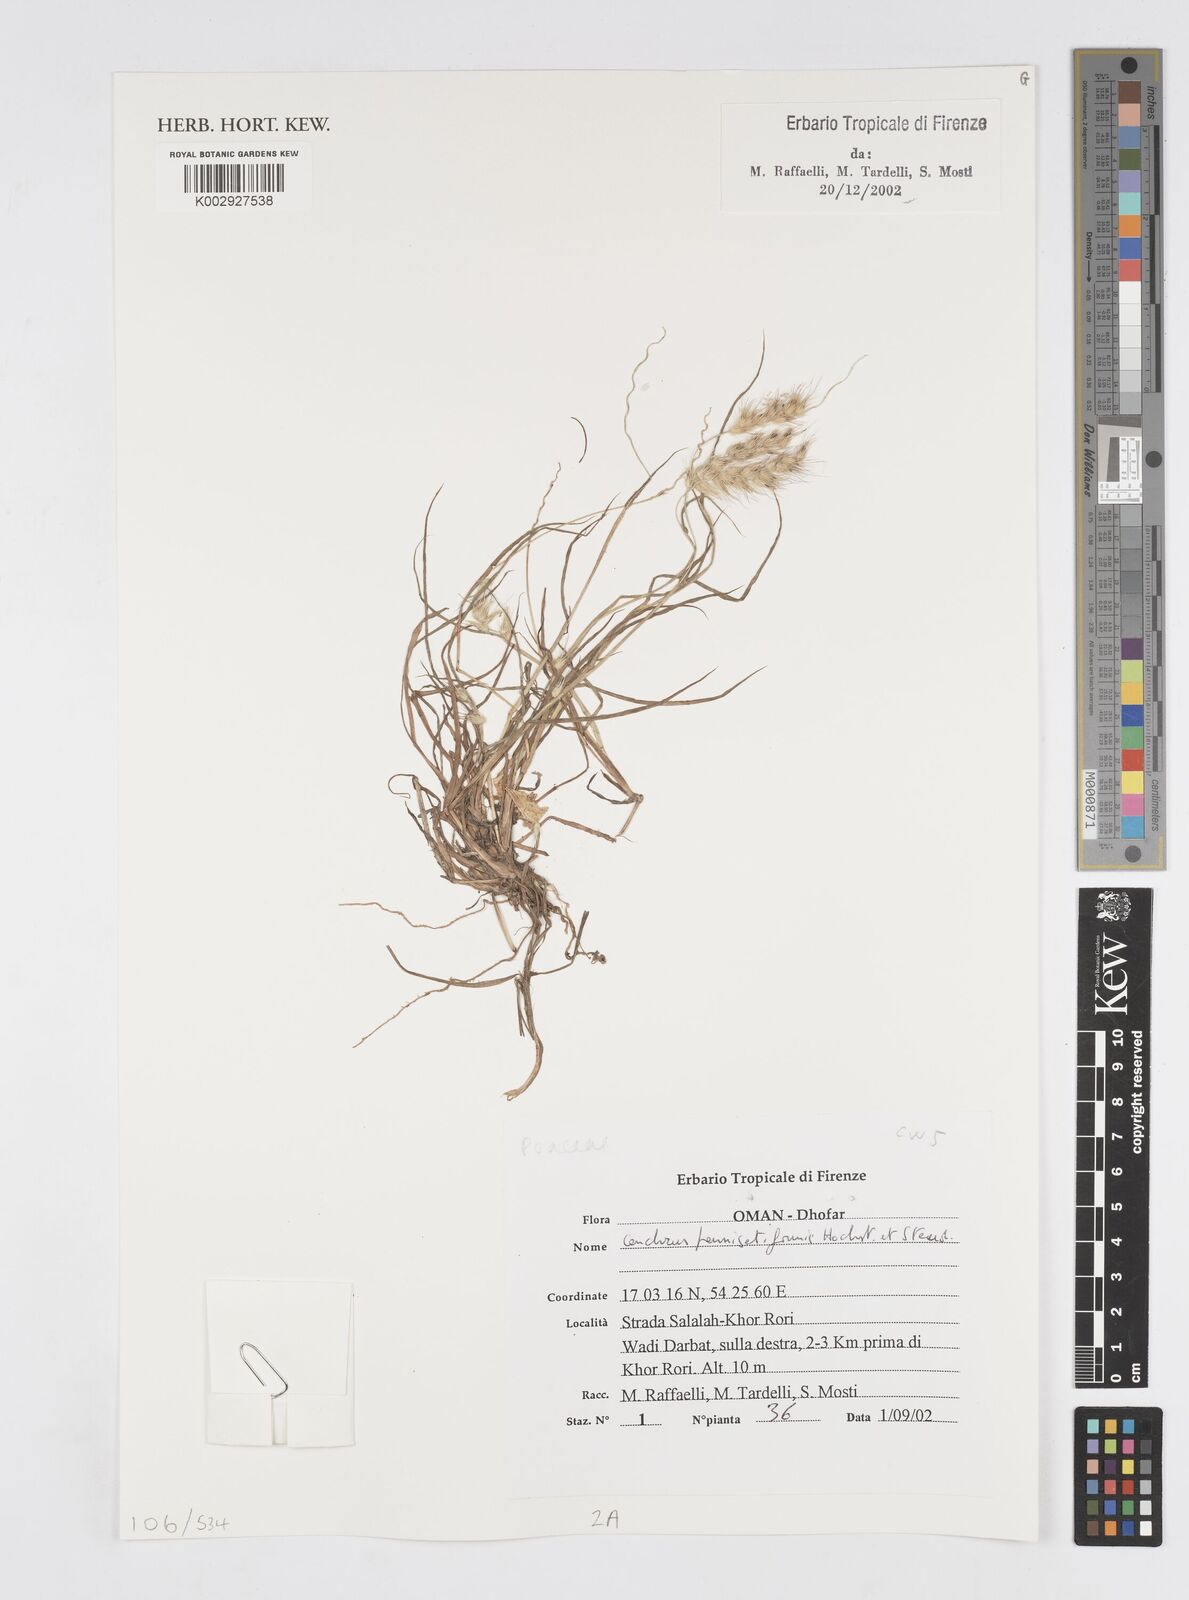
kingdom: Plantae
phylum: Tracheophyta
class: Liliopsida
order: Poales
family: Poaceae
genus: Cenchrus
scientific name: Cenchrus pennisetiformis
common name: Cloncurry
